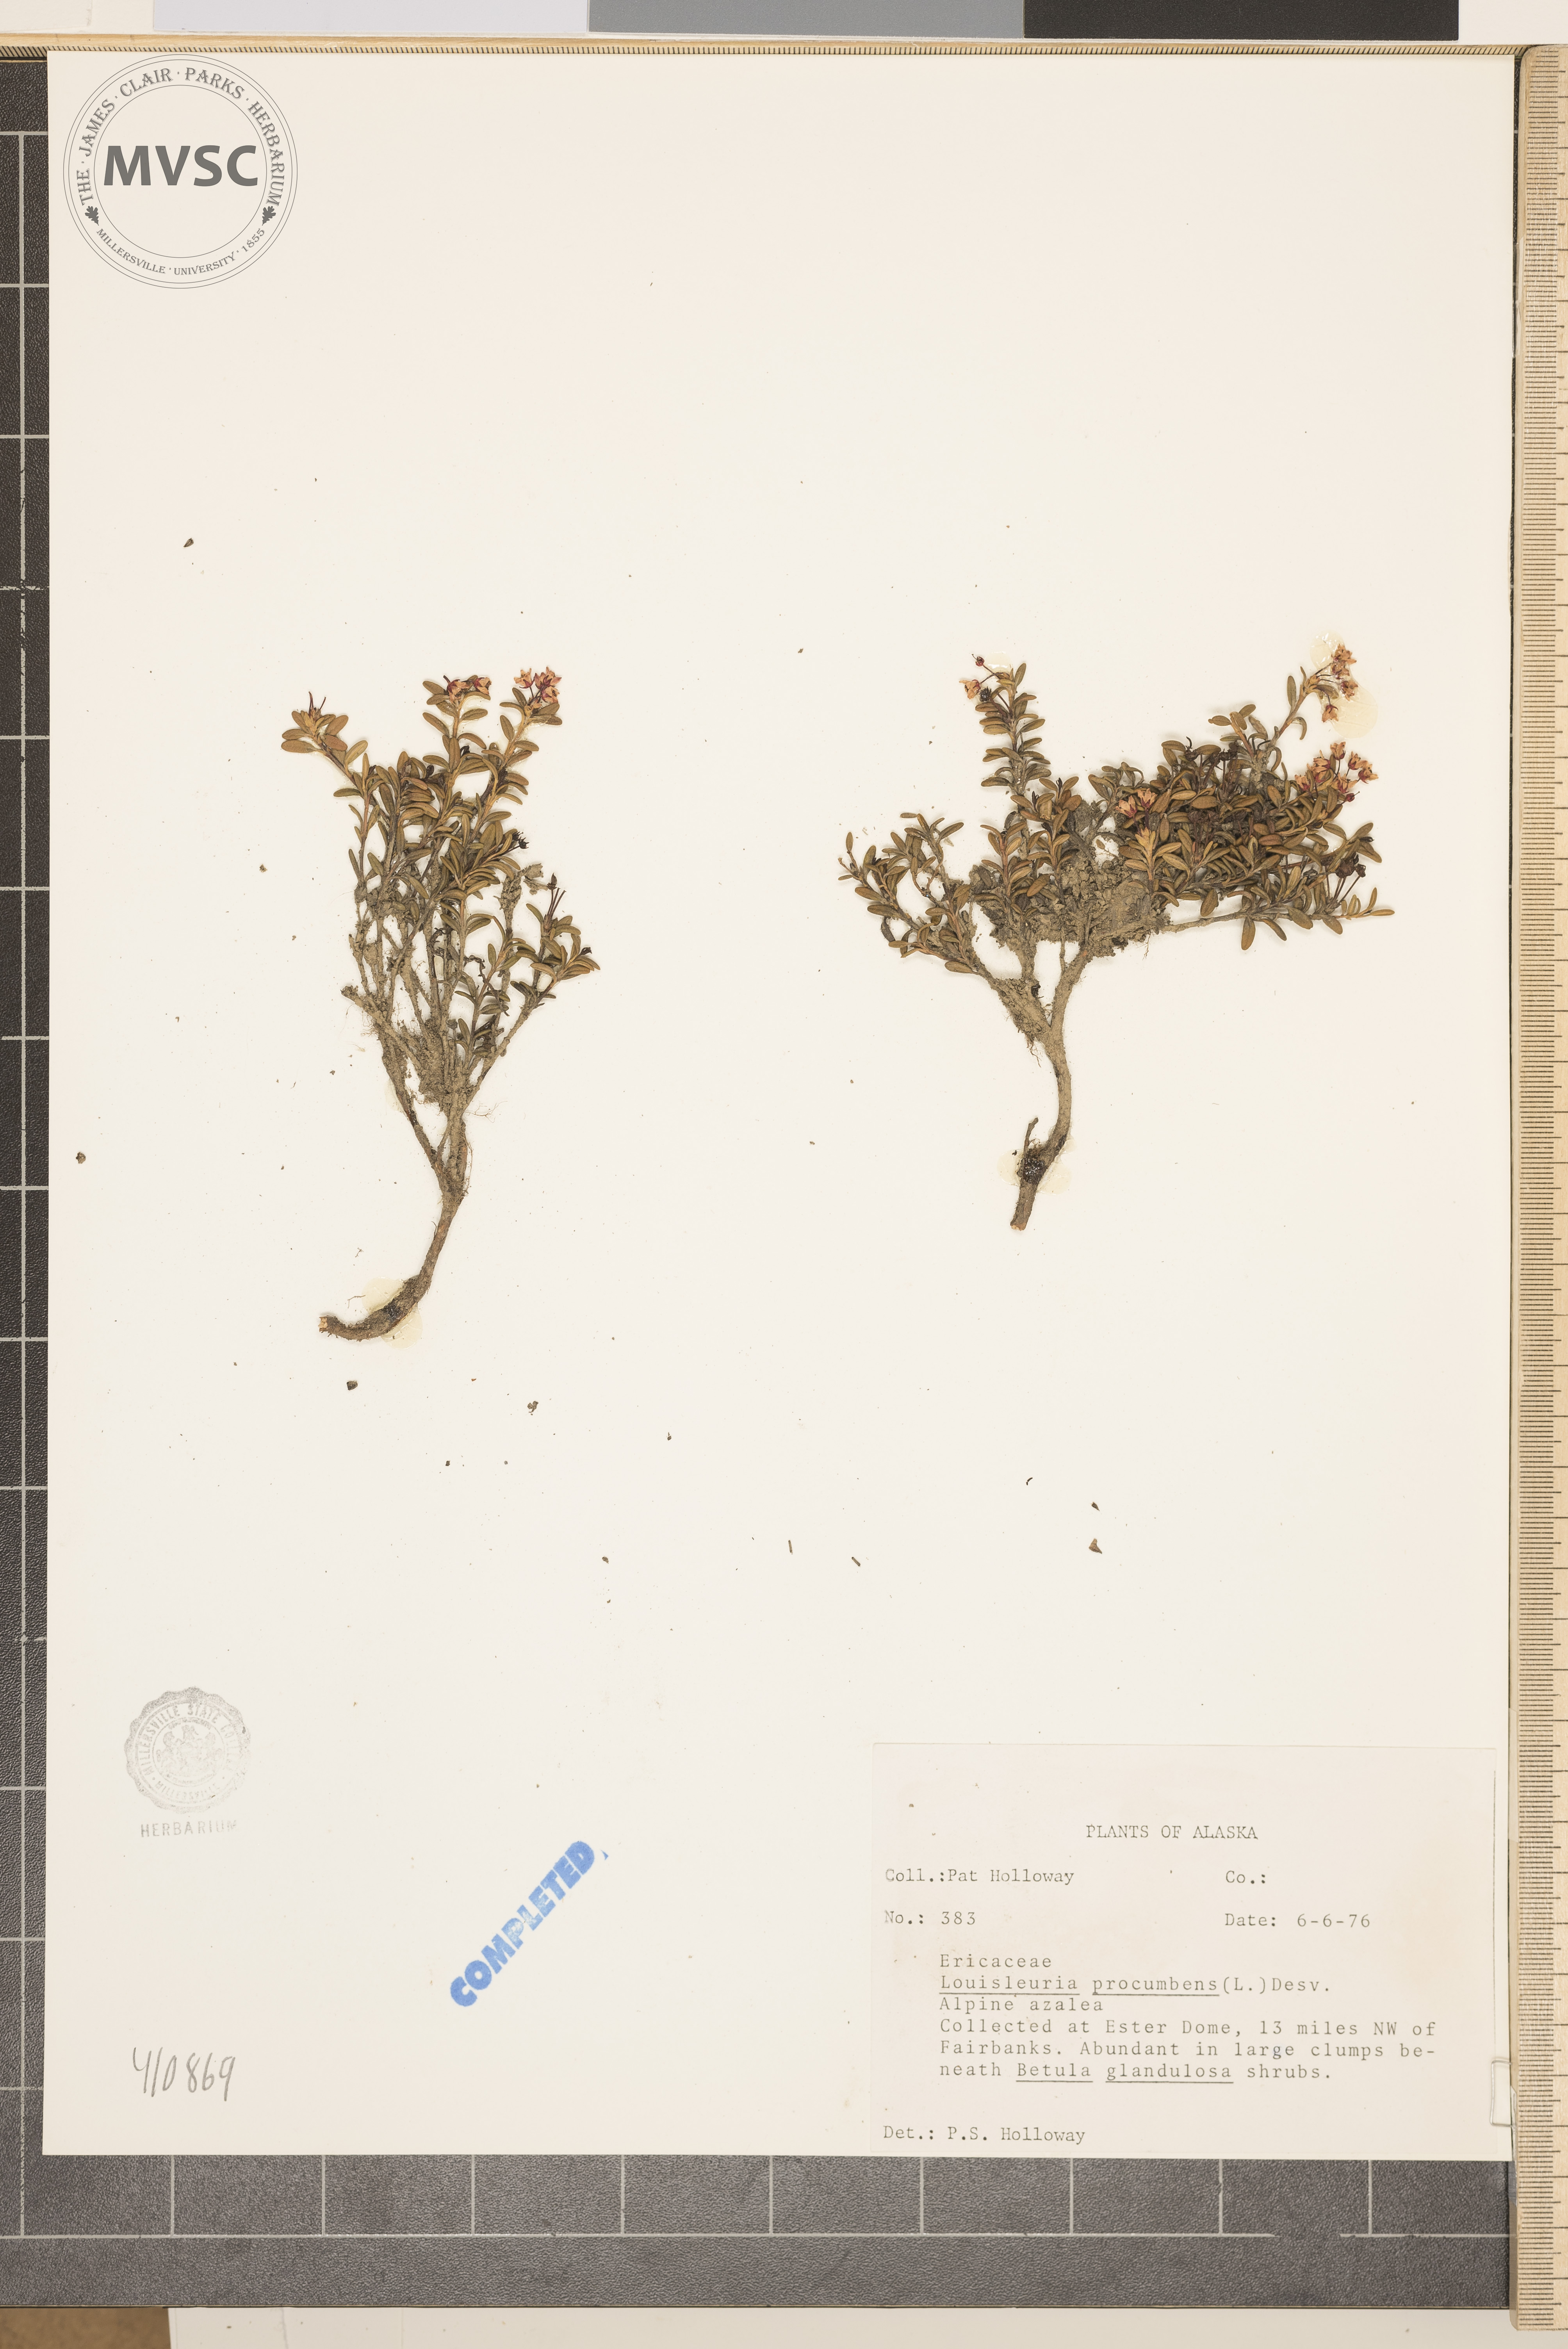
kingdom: Plantae
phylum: Tracheophyta
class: Magnoliopsida
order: Ericales
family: Ericaceae
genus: Kalmia
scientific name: Kalmia procumbens
